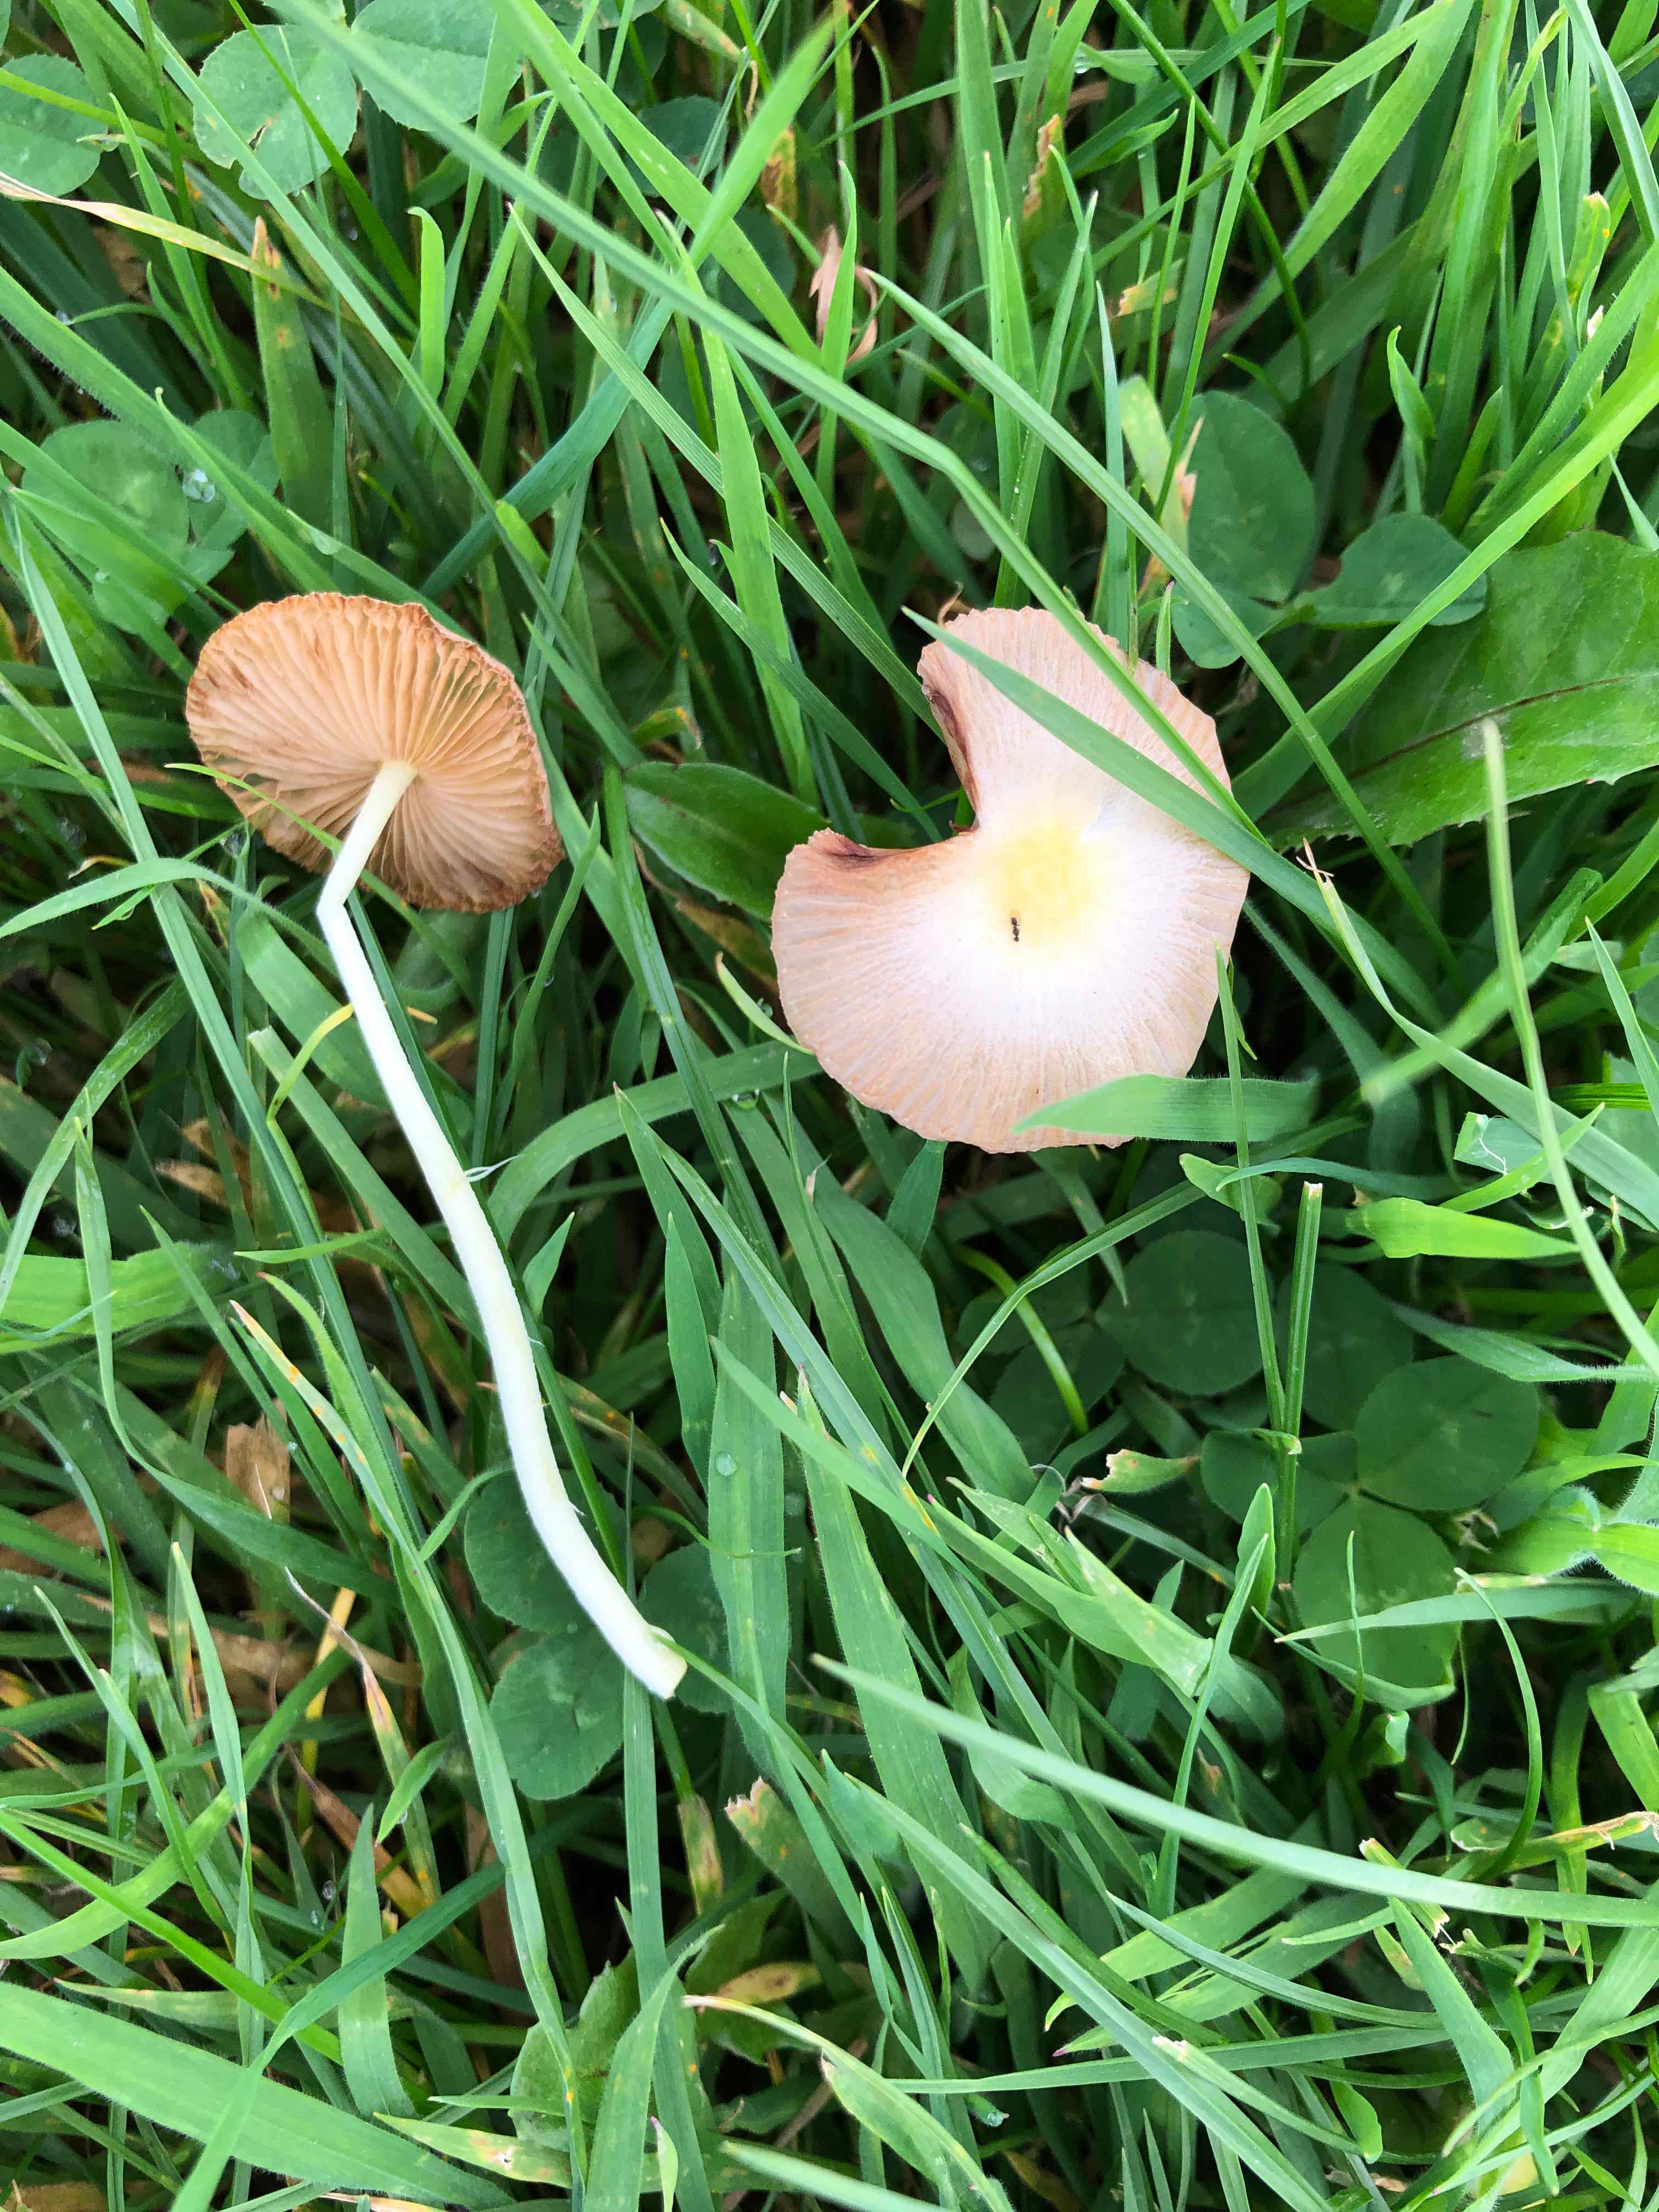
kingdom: Fungi
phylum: Basidiomycota
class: Agaricomycetes
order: Agaricales
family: Bolbitiaceae
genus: Bolbitius
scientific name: Bolbitius titubans
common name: almindelig gulhat
